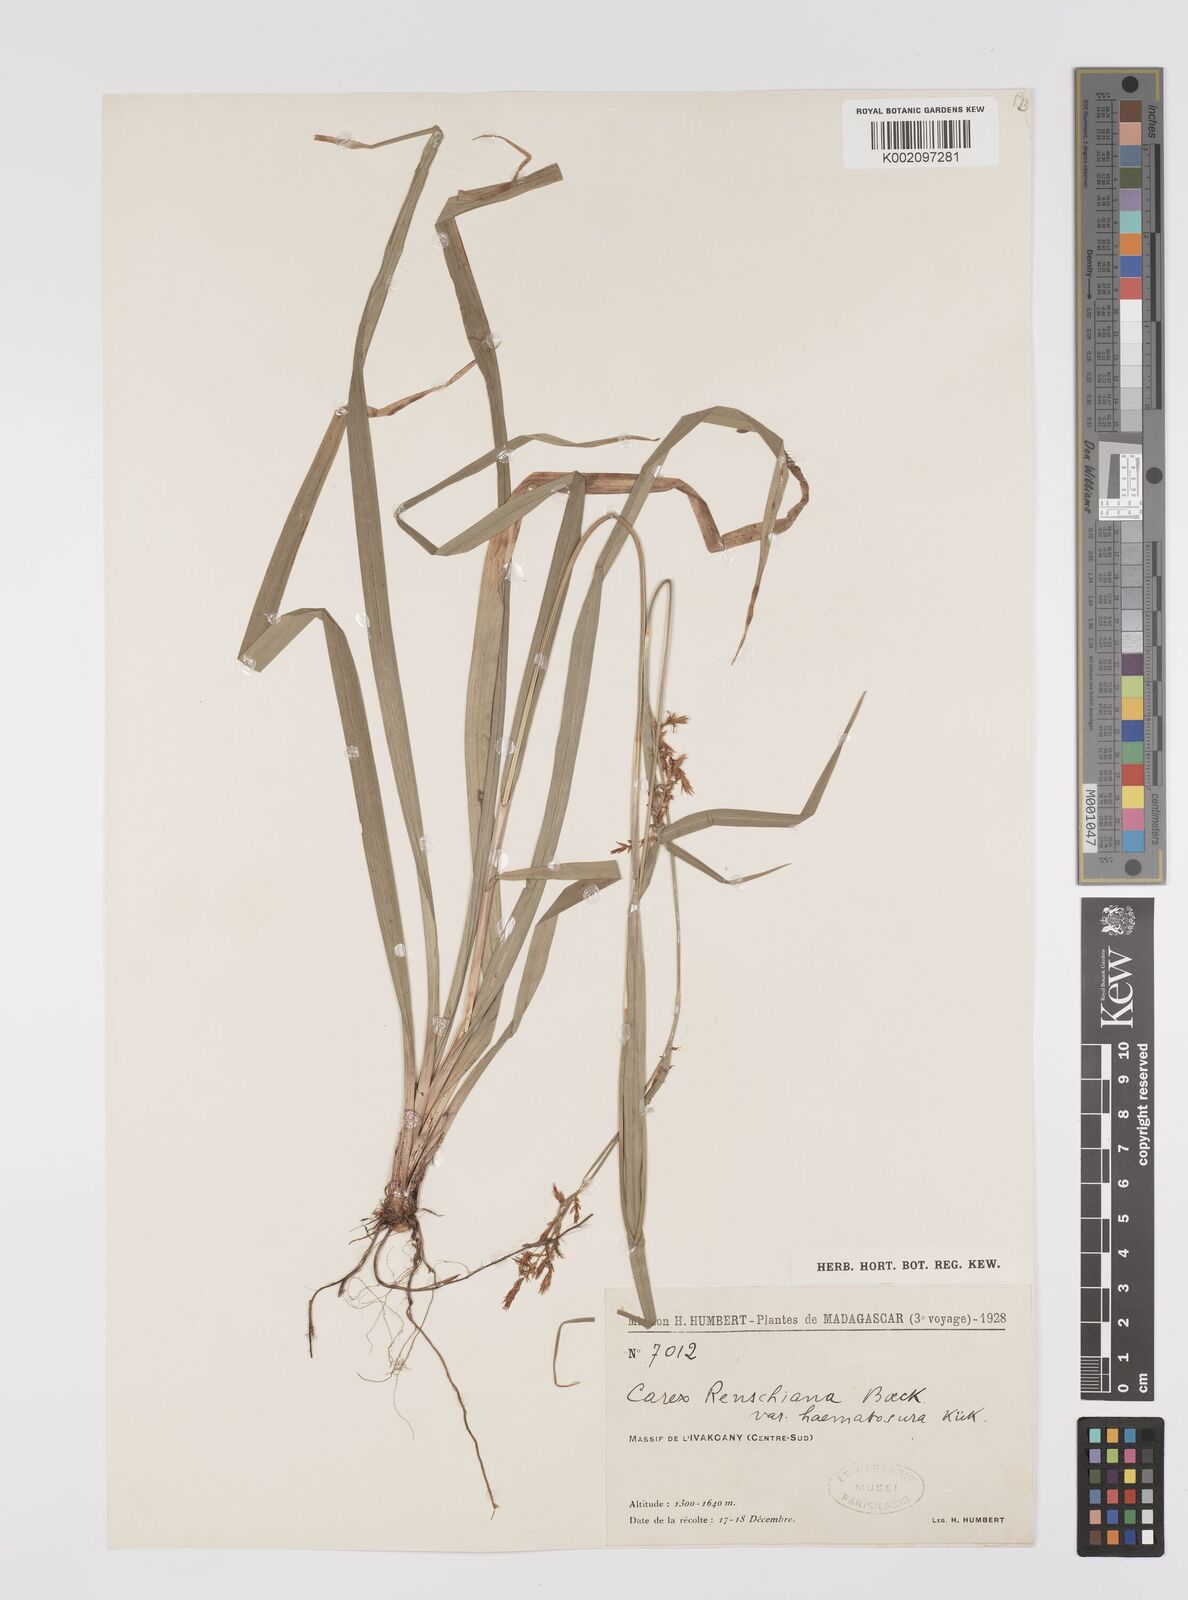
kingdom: Plantae
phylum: Tracheophyta
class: Liliopsida
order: Poales
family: Cyperaceae
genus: Carex
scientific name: Carex renschiana
